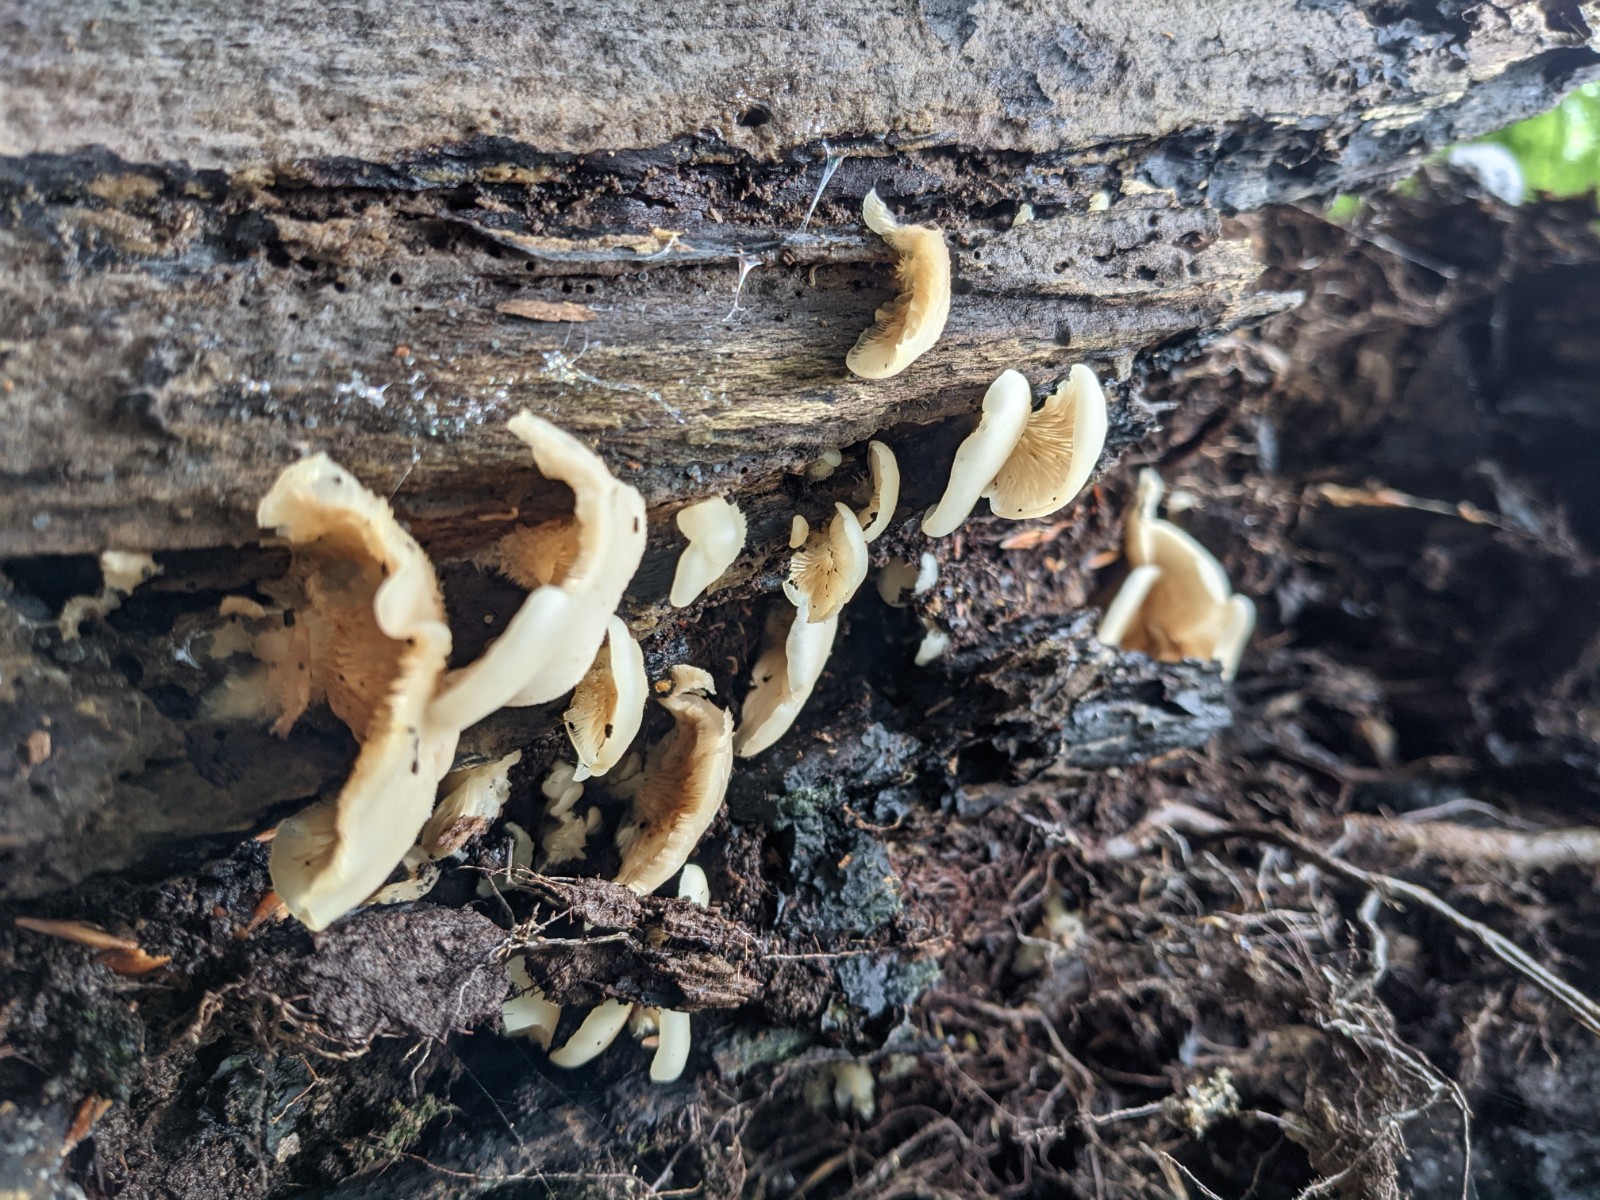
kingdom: Fungi
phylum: Basidiomycota
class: Agaricomycetes
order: Agaricales
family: Crepidotaceae
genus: Crepidotus
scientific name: Crepidotus applanatus
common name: tvefarvet muslingesvamp
